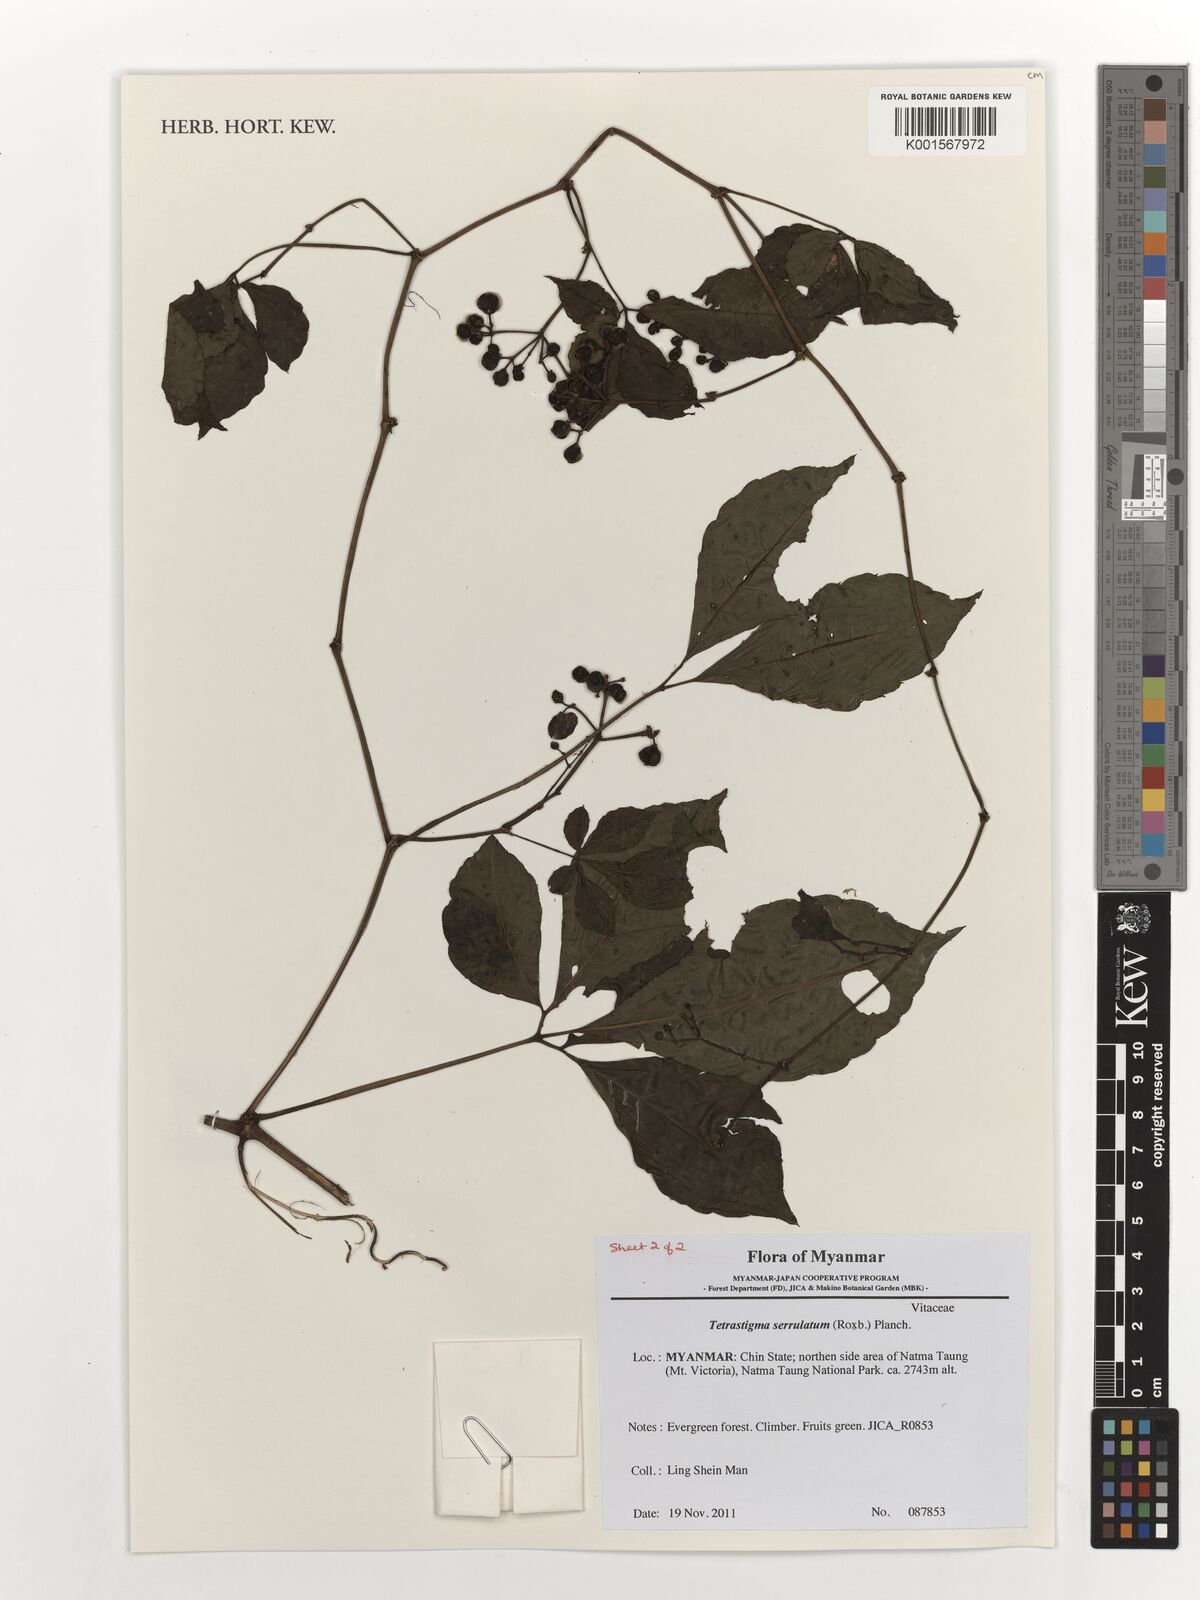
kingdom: Plantae
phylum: Tracheophyta
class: Magnoliopsida
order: Vitales
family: Vitaceae
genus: Tetrastigma
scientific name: Tetrastigma serrulatum
